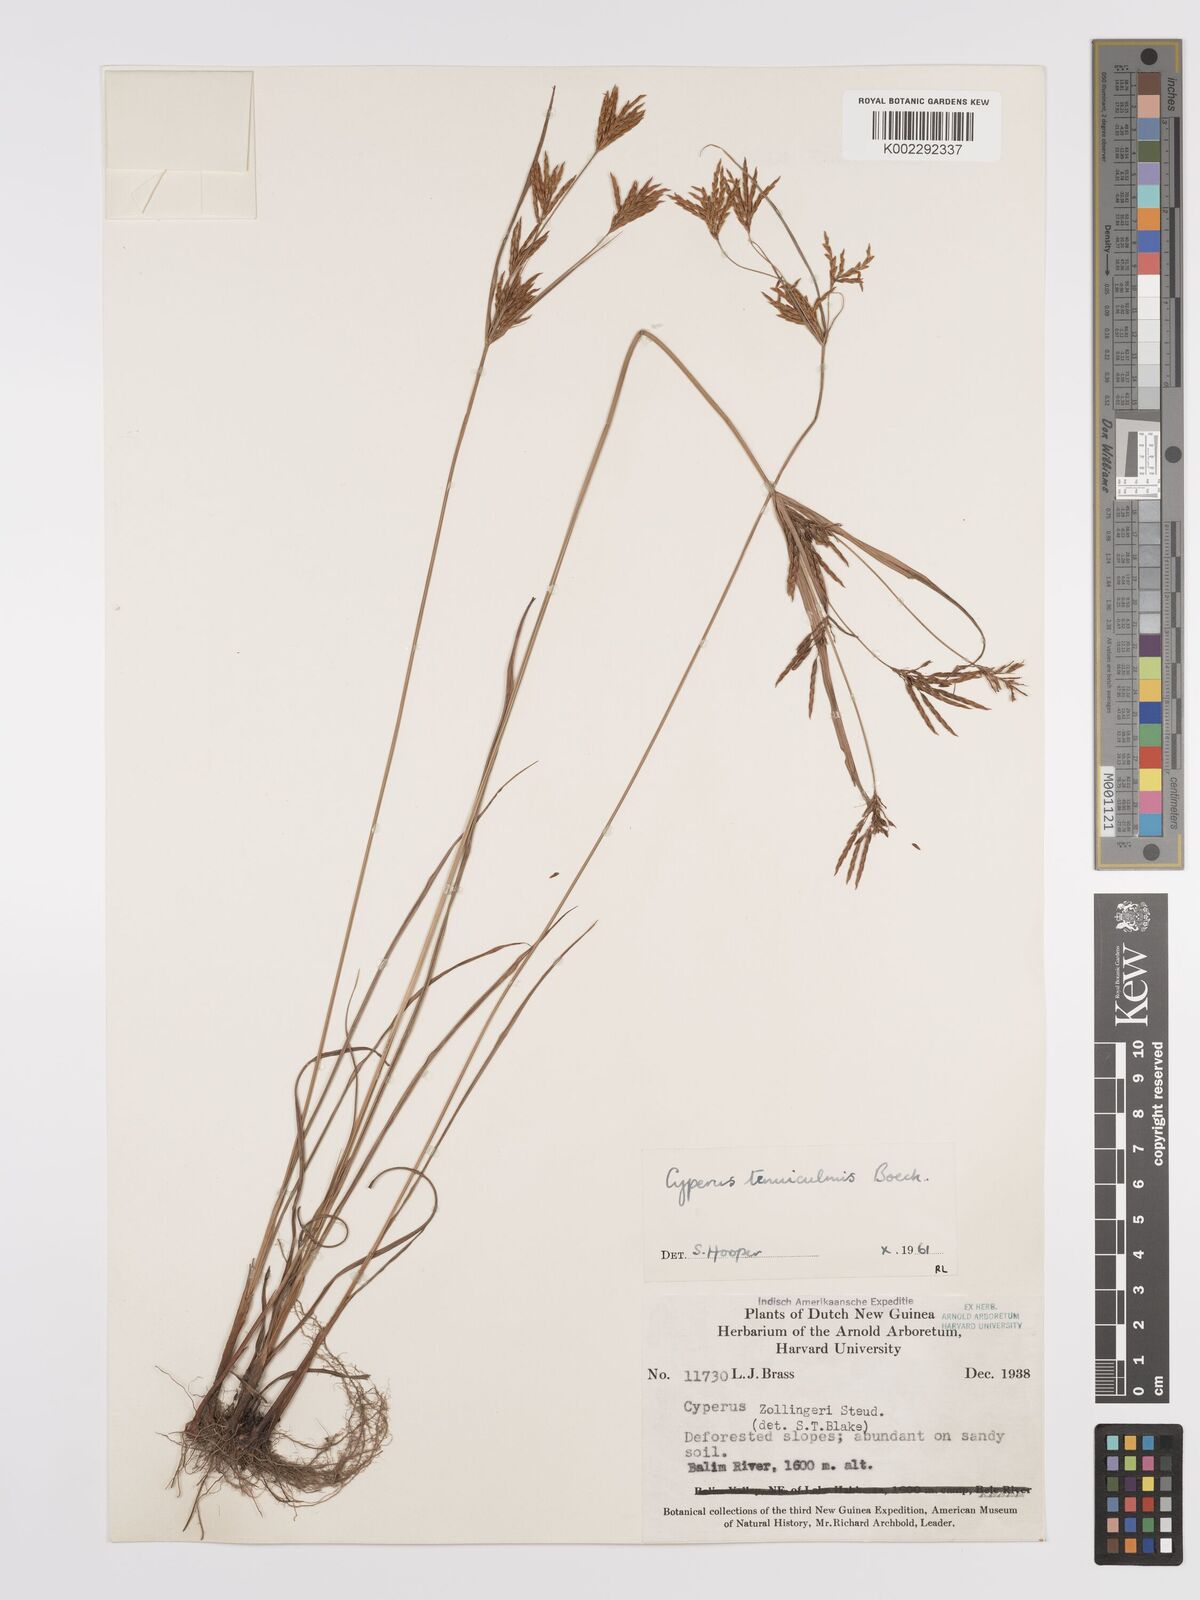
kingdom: Plantae
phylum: Tracheophyta
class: Liliopsida
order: Poales
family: Cyperaceae
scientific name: Cyperaceae
